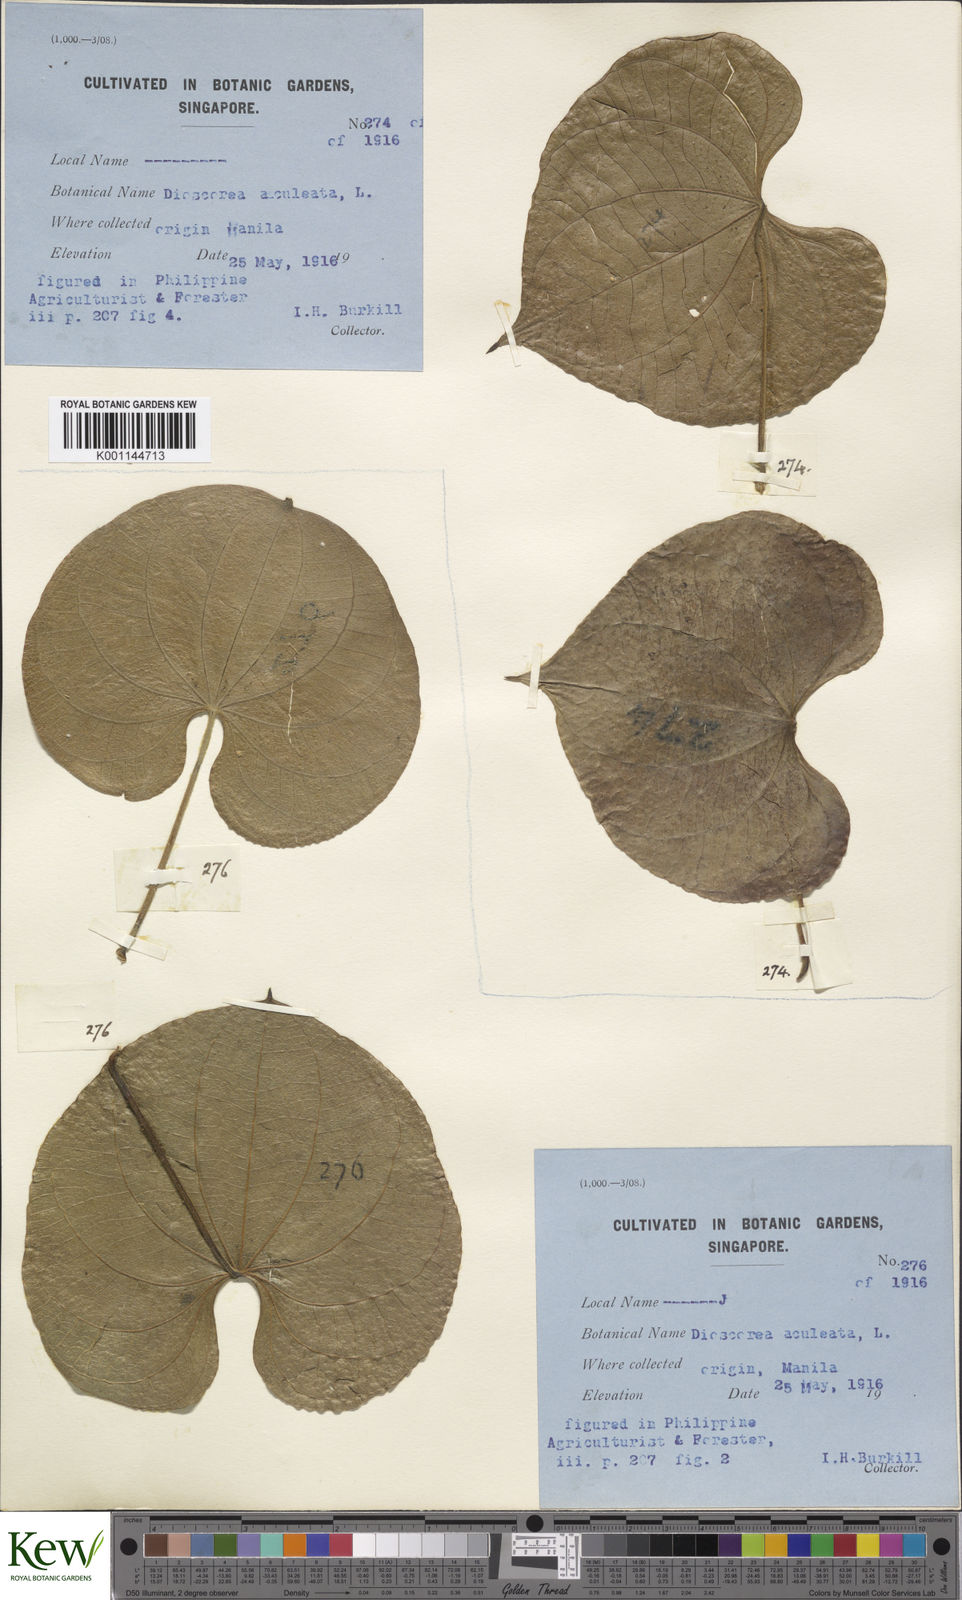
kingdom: Plantae
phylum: Tracheophyta
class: Liliopsida
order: Dioscoreales
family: Dioscoreaceae
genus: Dioscorea
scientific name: Dioscorea esculenta
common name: Chinese yam
